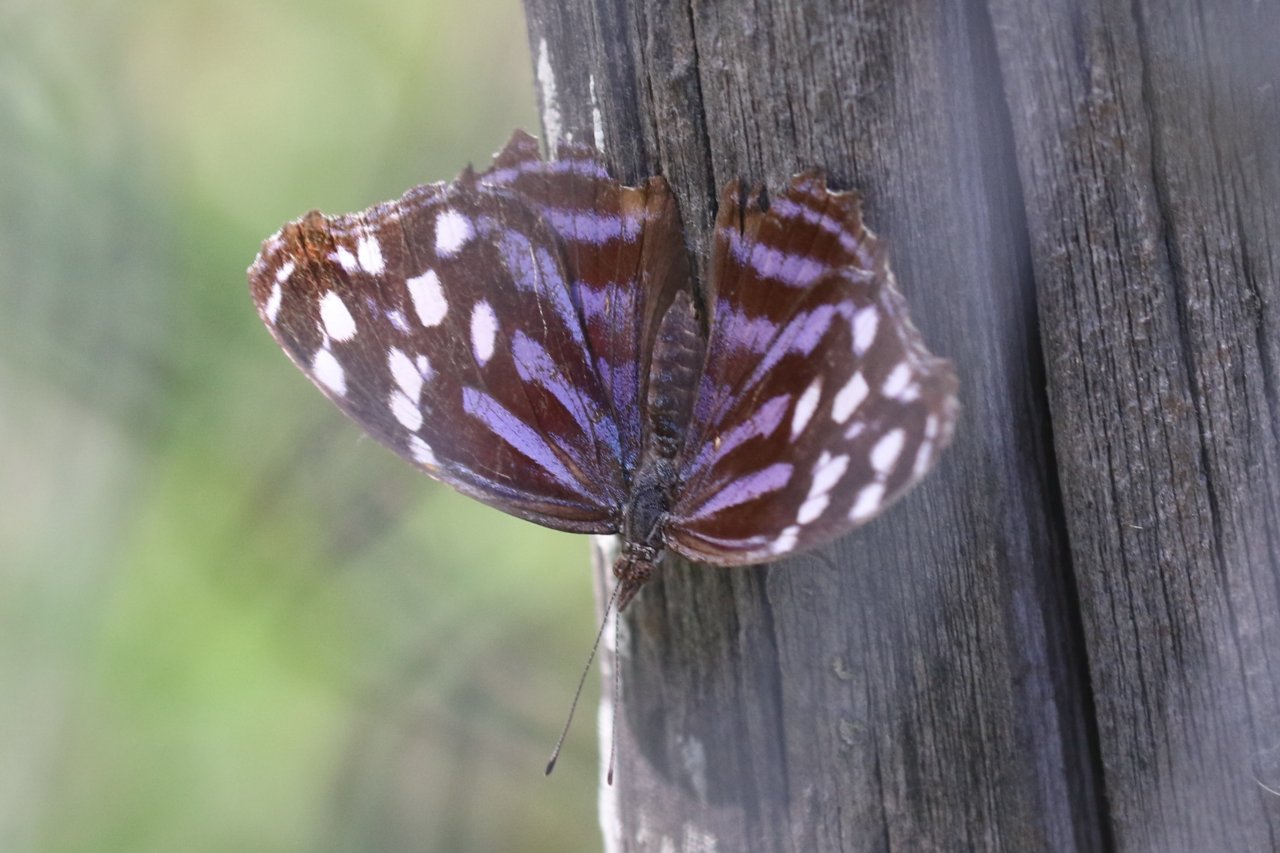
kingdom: Animalia
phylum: Arthropoda
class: Insecta
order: Lepidoptera
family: Nymphalidae
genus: Myscelia
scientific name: Myscelia ethusa
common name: Mexican Bluewing
